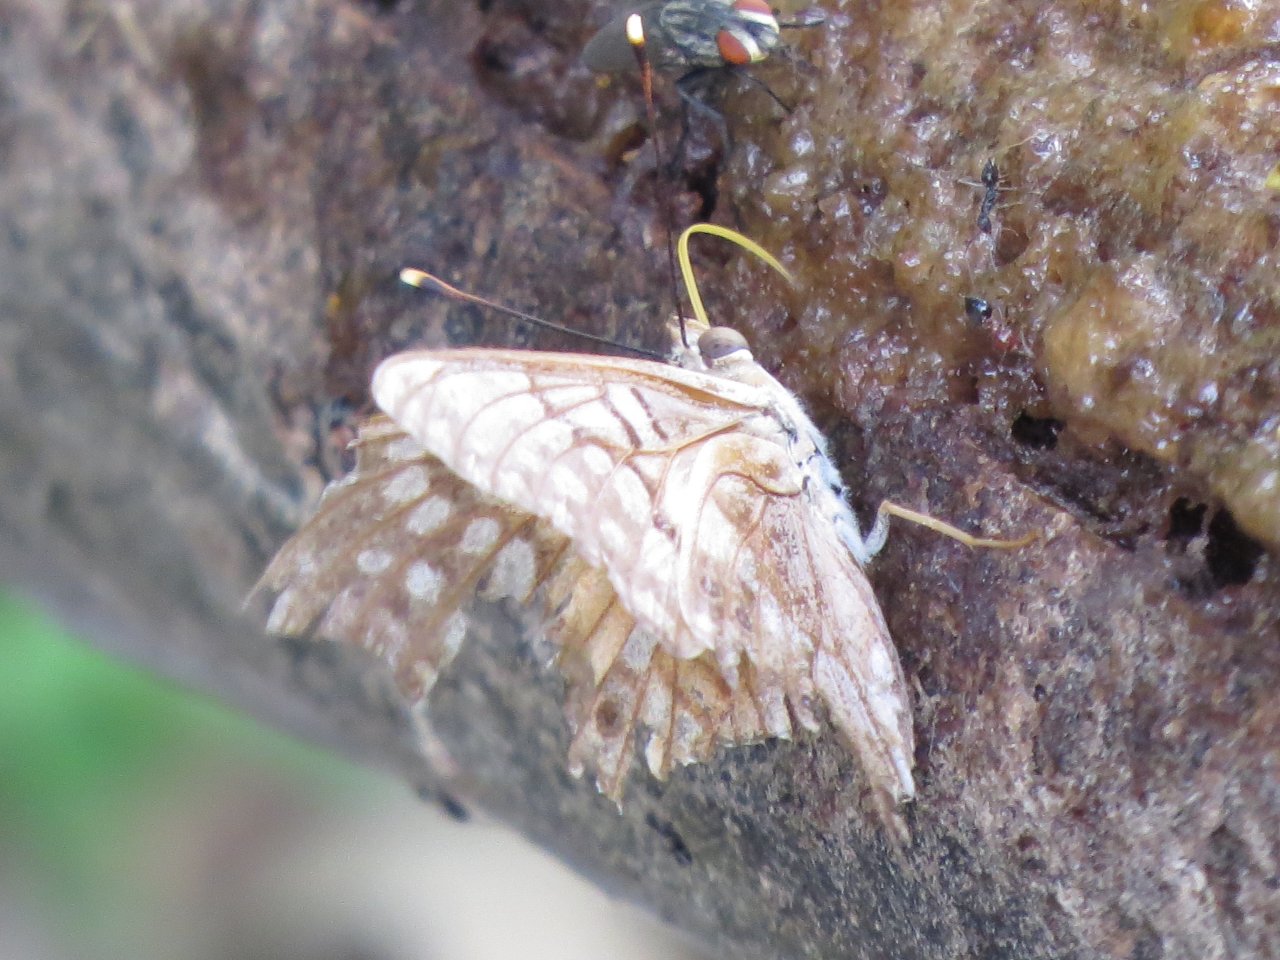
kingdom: Animalia
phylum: Arthropoda
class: Insecta
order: Lepidoptera
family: Nymphalidae
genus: Asterocampa
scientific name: Asterocampa clyton
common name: Tawny Emperor
